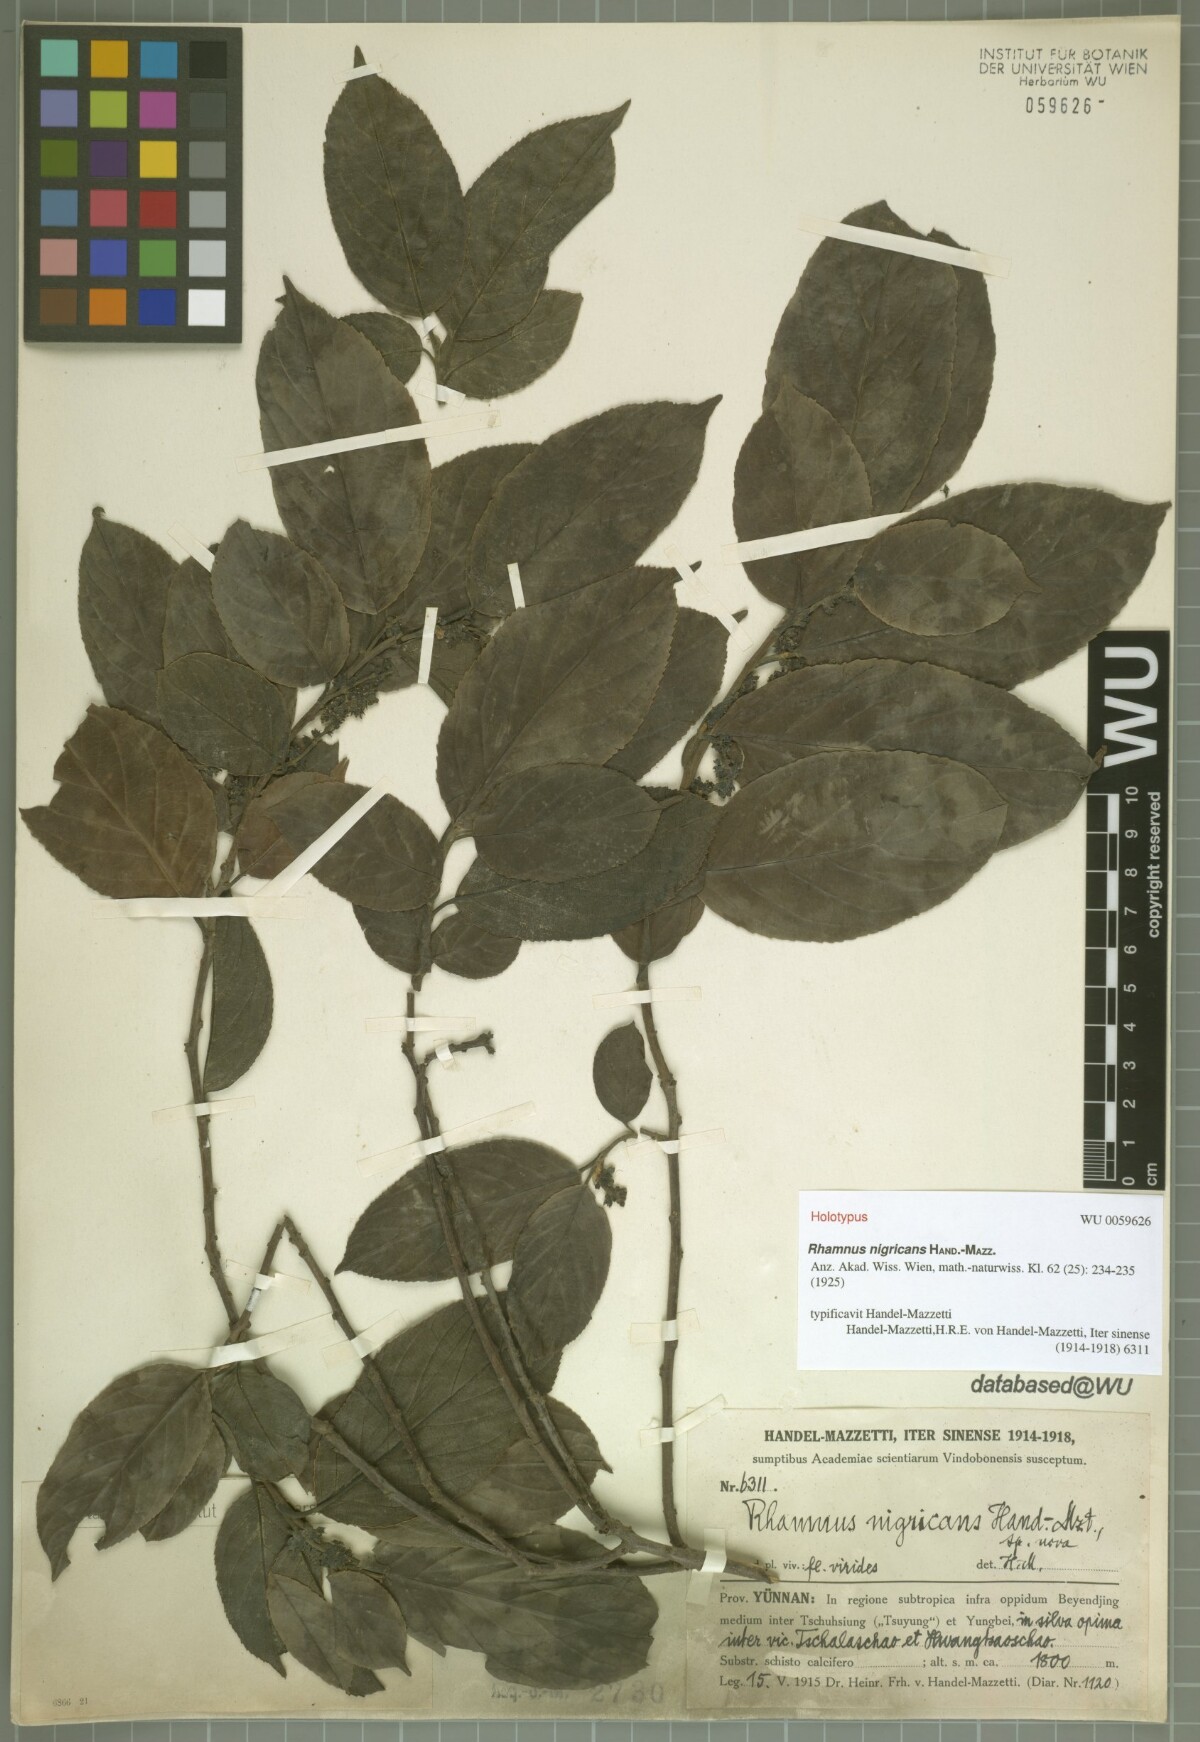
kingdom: Plantae
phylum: Tracheophyta
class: Magnoliopsida
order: Rosales
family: Rhamnaceae
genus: Rhamnus
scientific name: Rhamnus nigricans
